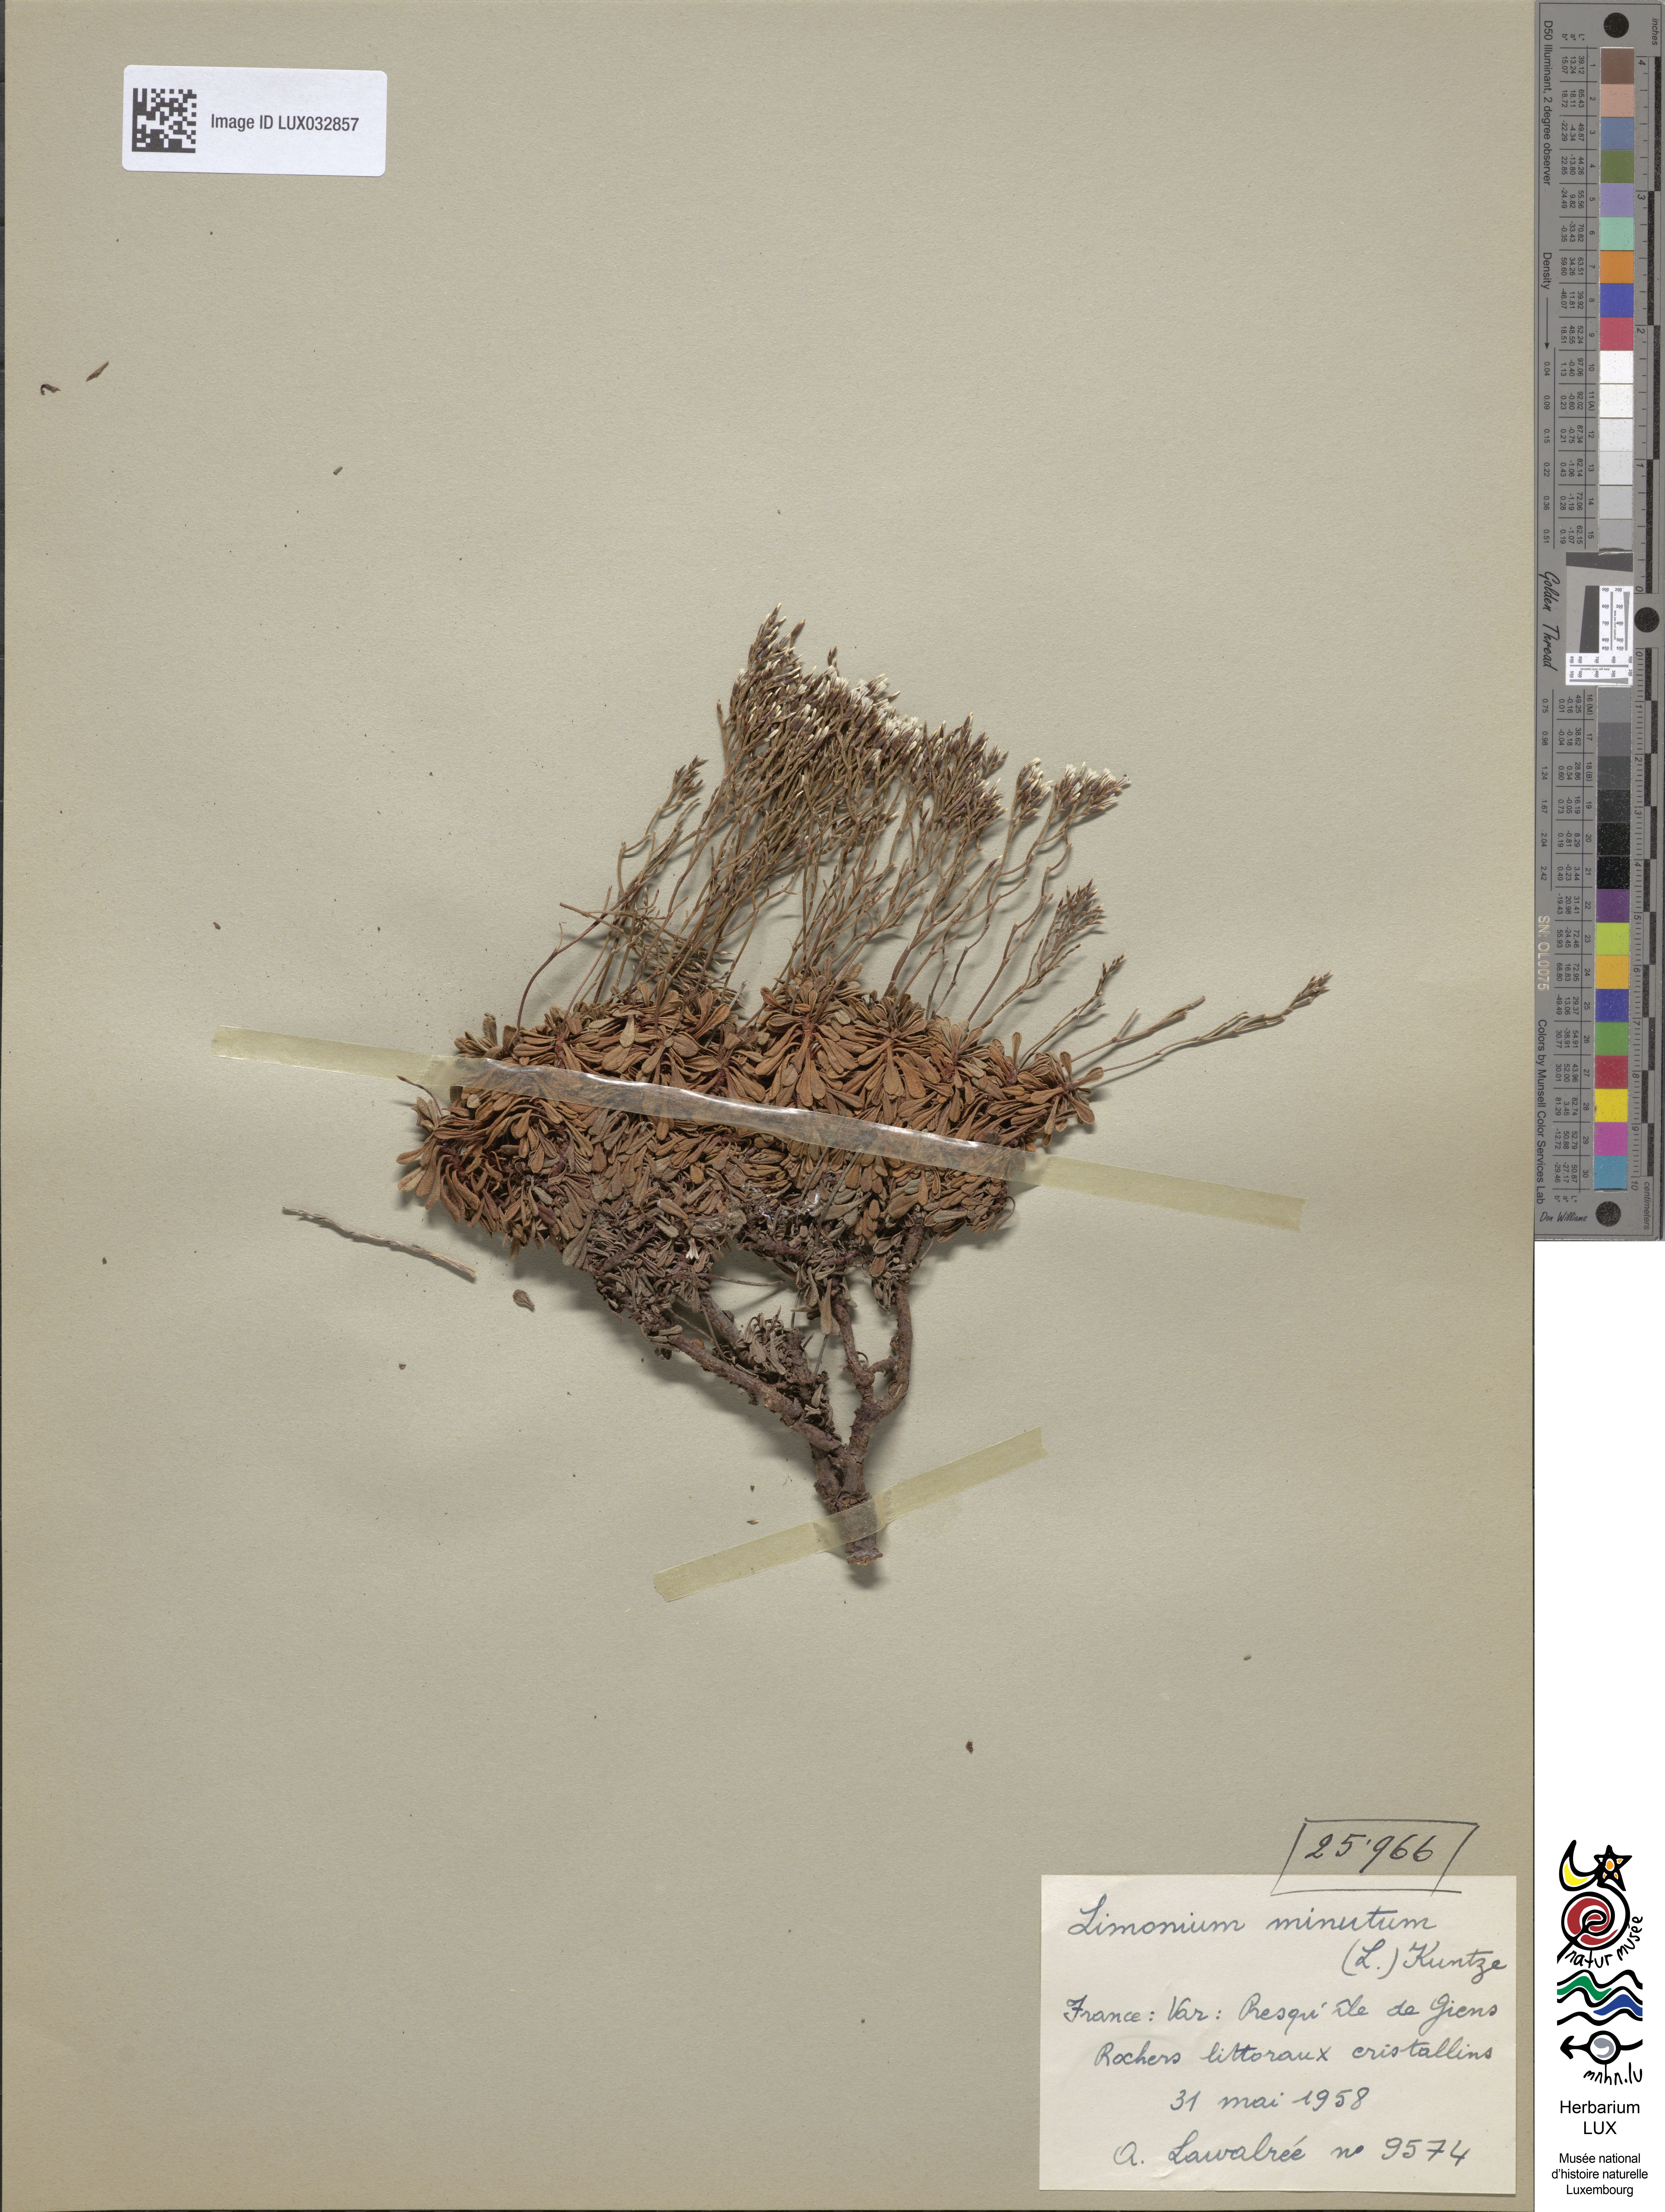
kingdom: Plantae
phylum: Tracheophyta
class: Magnoliopsida
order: Caryophyllales
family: Plumbaginaceae
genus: Limonium
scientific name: Limonium minutum
